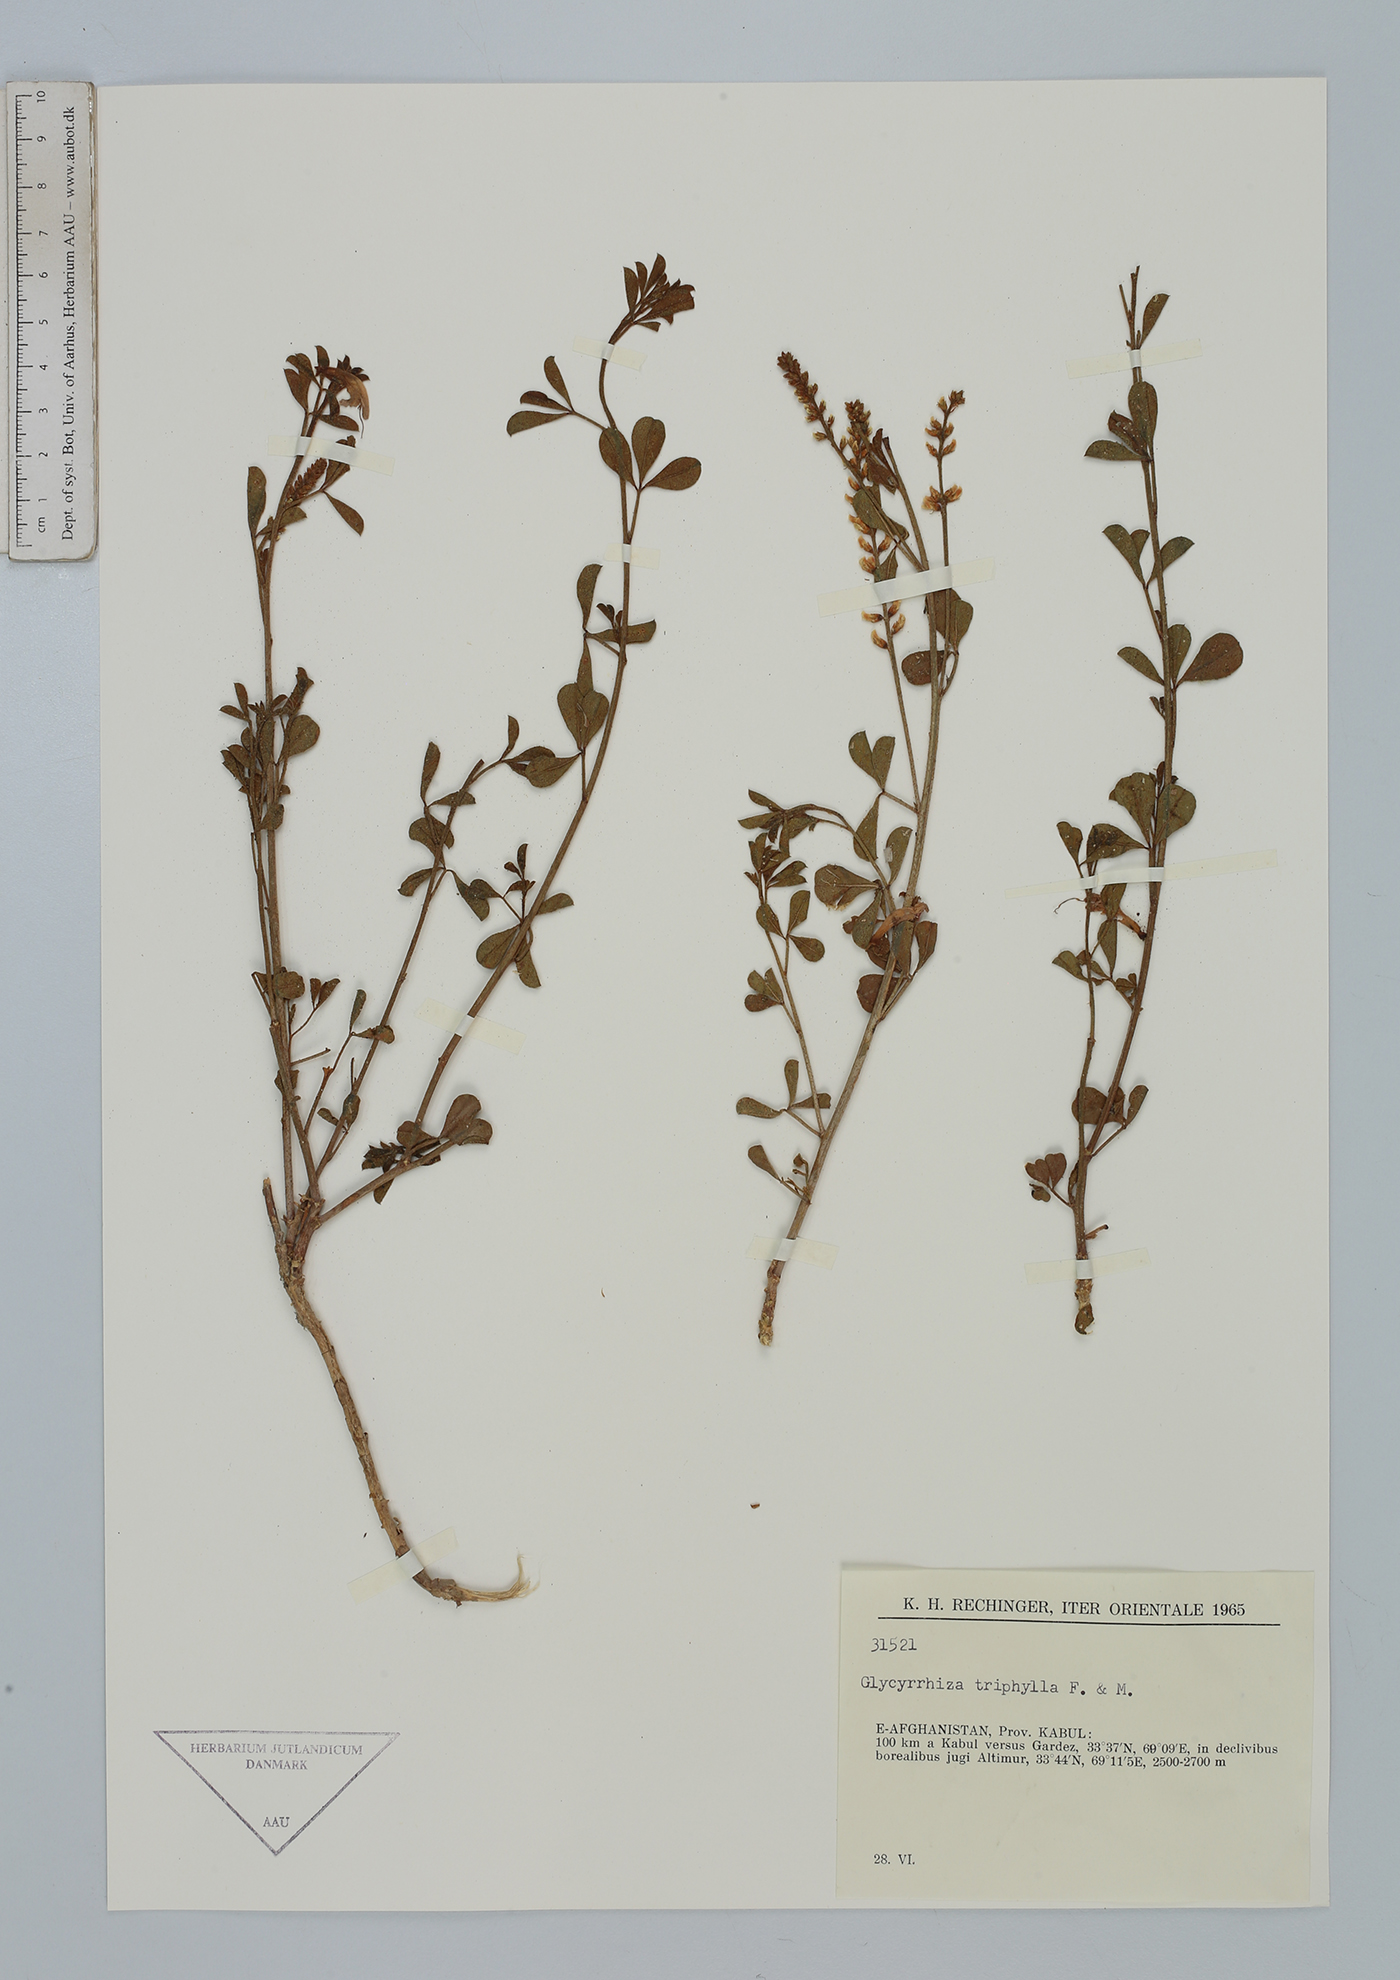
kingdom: Plantae
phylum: Tracheophyta
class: Magnoliopsida
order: Fabales
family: Fabaceae
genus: Glycyrrhiza
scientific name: Glycyrrhiza triphylla
